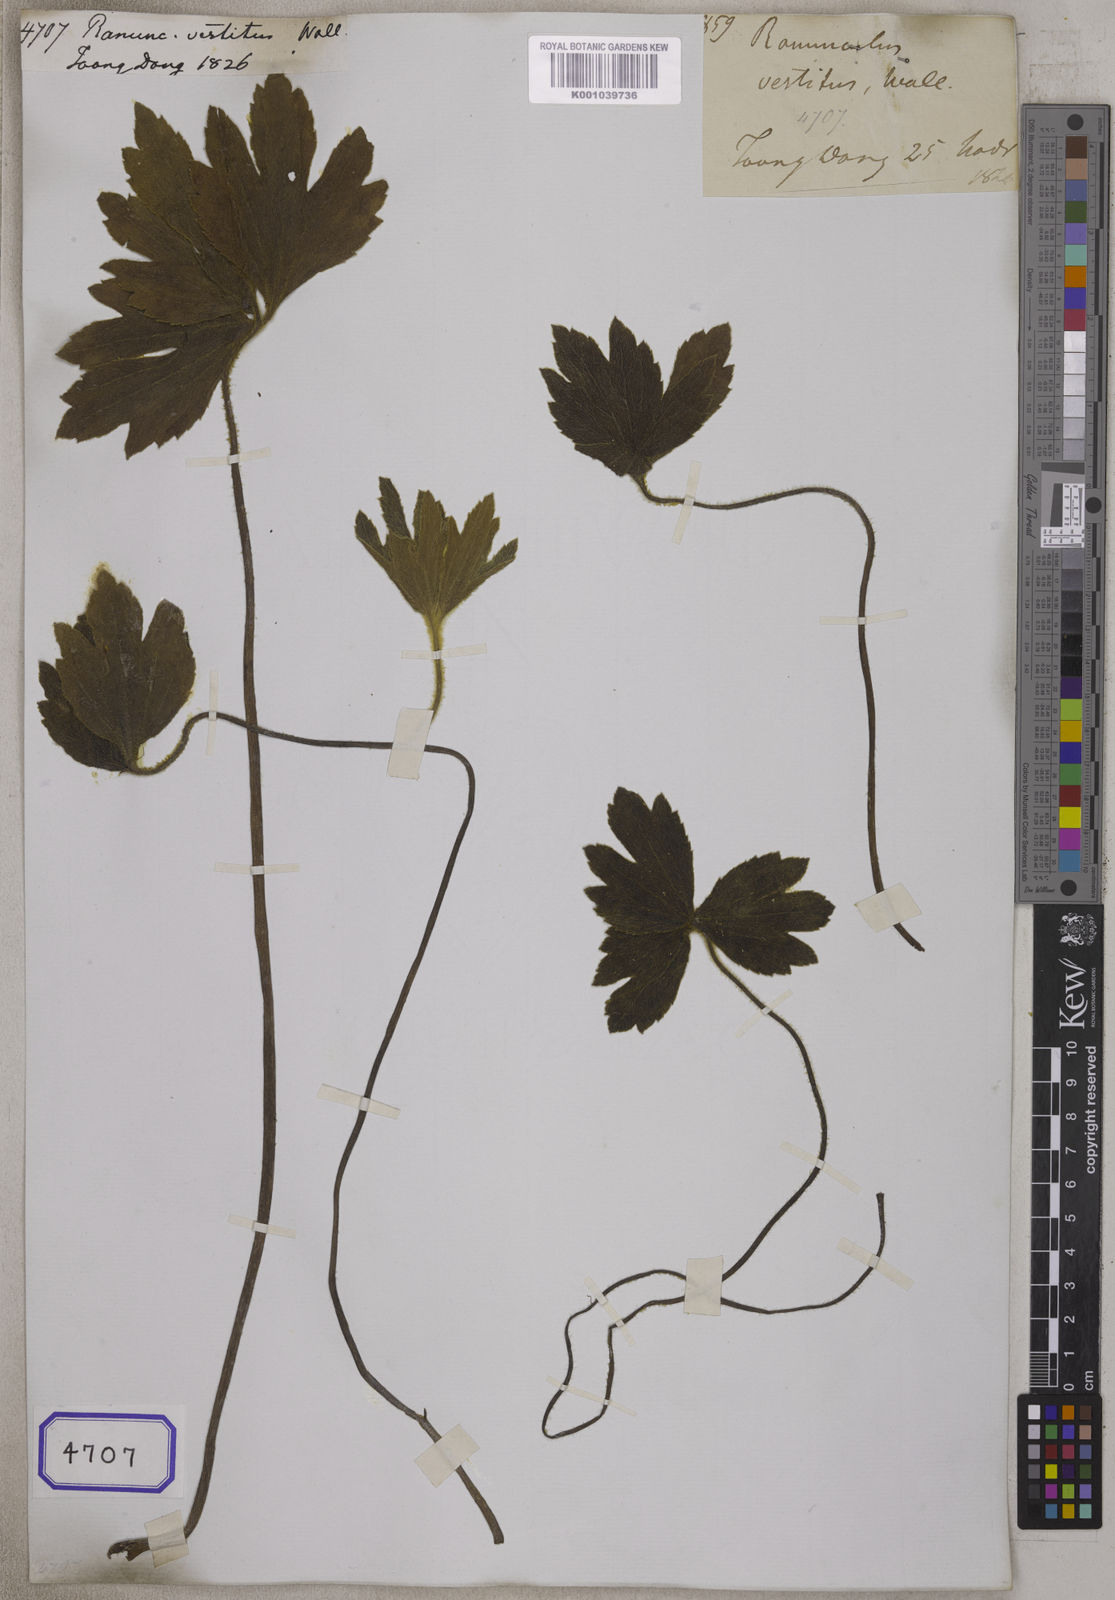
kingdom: Plantae
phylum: Tracheophyta
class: Magnoliopsida
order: Ranunculales
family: Ranunculaceae
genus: Ranunculus
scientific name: Ranunculus vestitus
